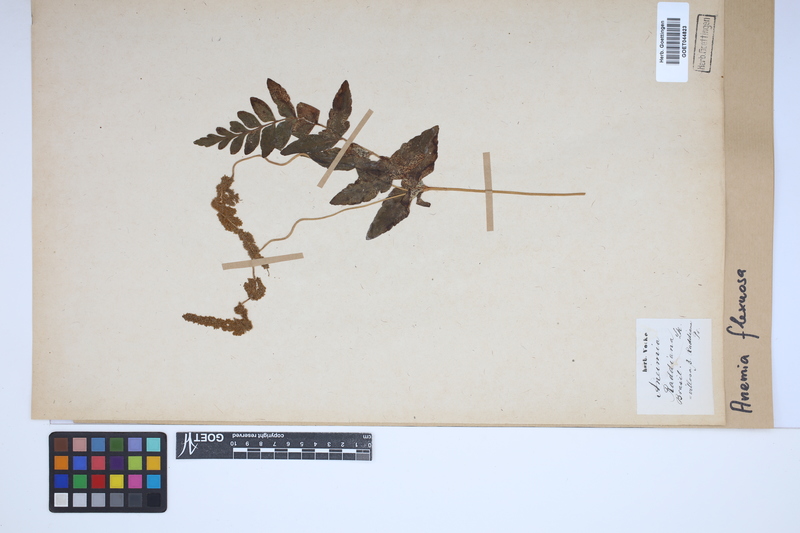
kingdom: Plantae
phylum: Tracheophyta
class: Polypodiopsida
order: Schizaeales
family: Anemiaceae
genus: Anemia
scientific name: Anemia flexuosa
